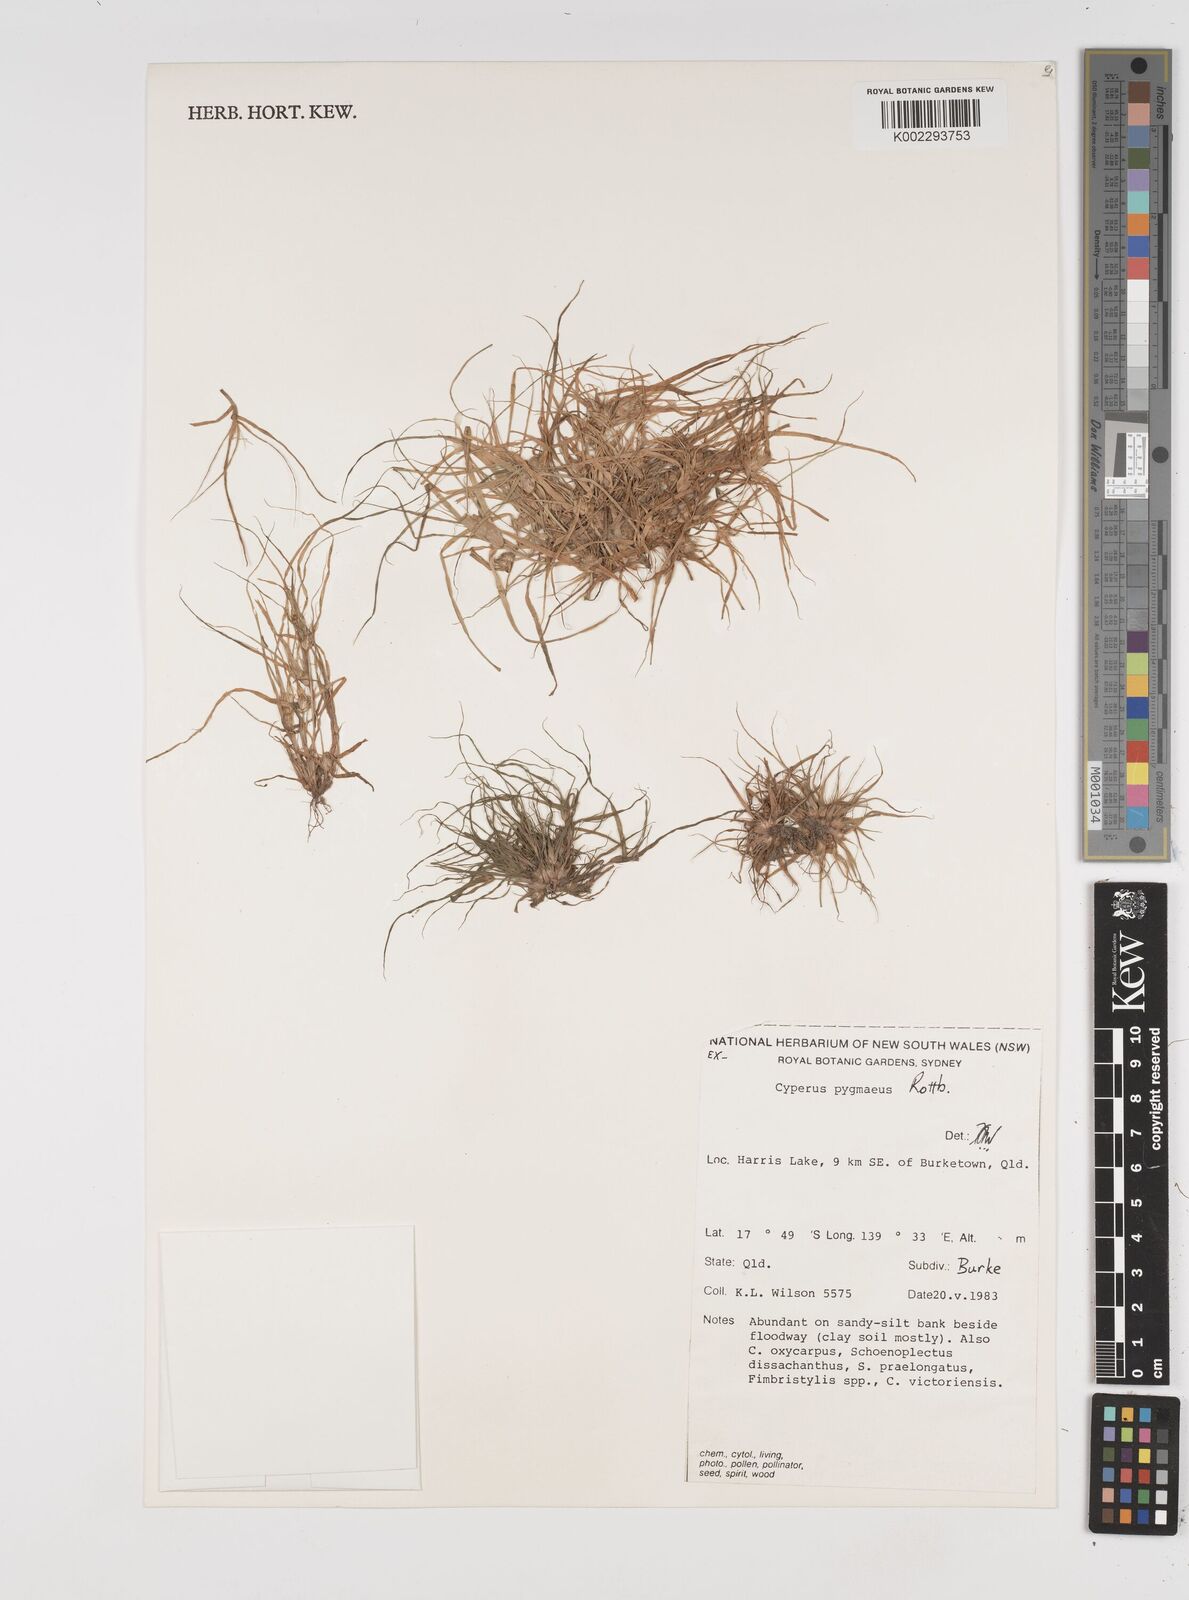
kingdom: Plantae
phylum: Tracheophyta
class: Liliopsida
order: Poales
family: Cyperaceae
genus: Cyperus
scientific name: Cyperus michelianus
